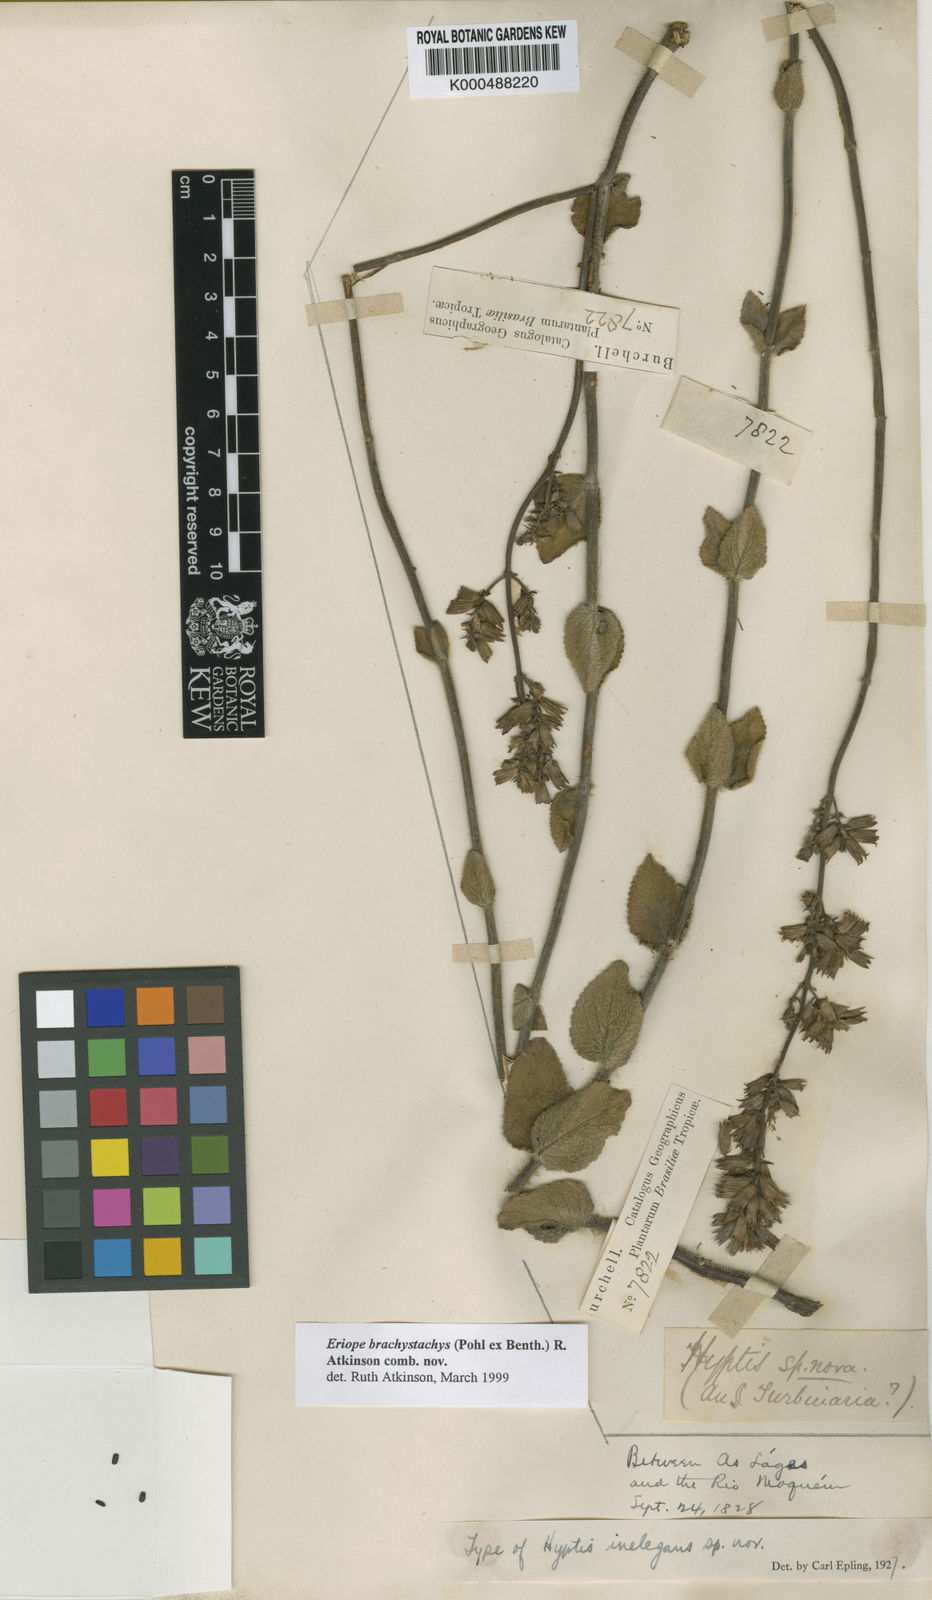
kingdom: Plantae
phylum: Tracheophyta
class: Magnoliopsida
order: Lamiales
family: Lamiaceae
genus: Hypenia
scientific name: Hypenia brachystachys
